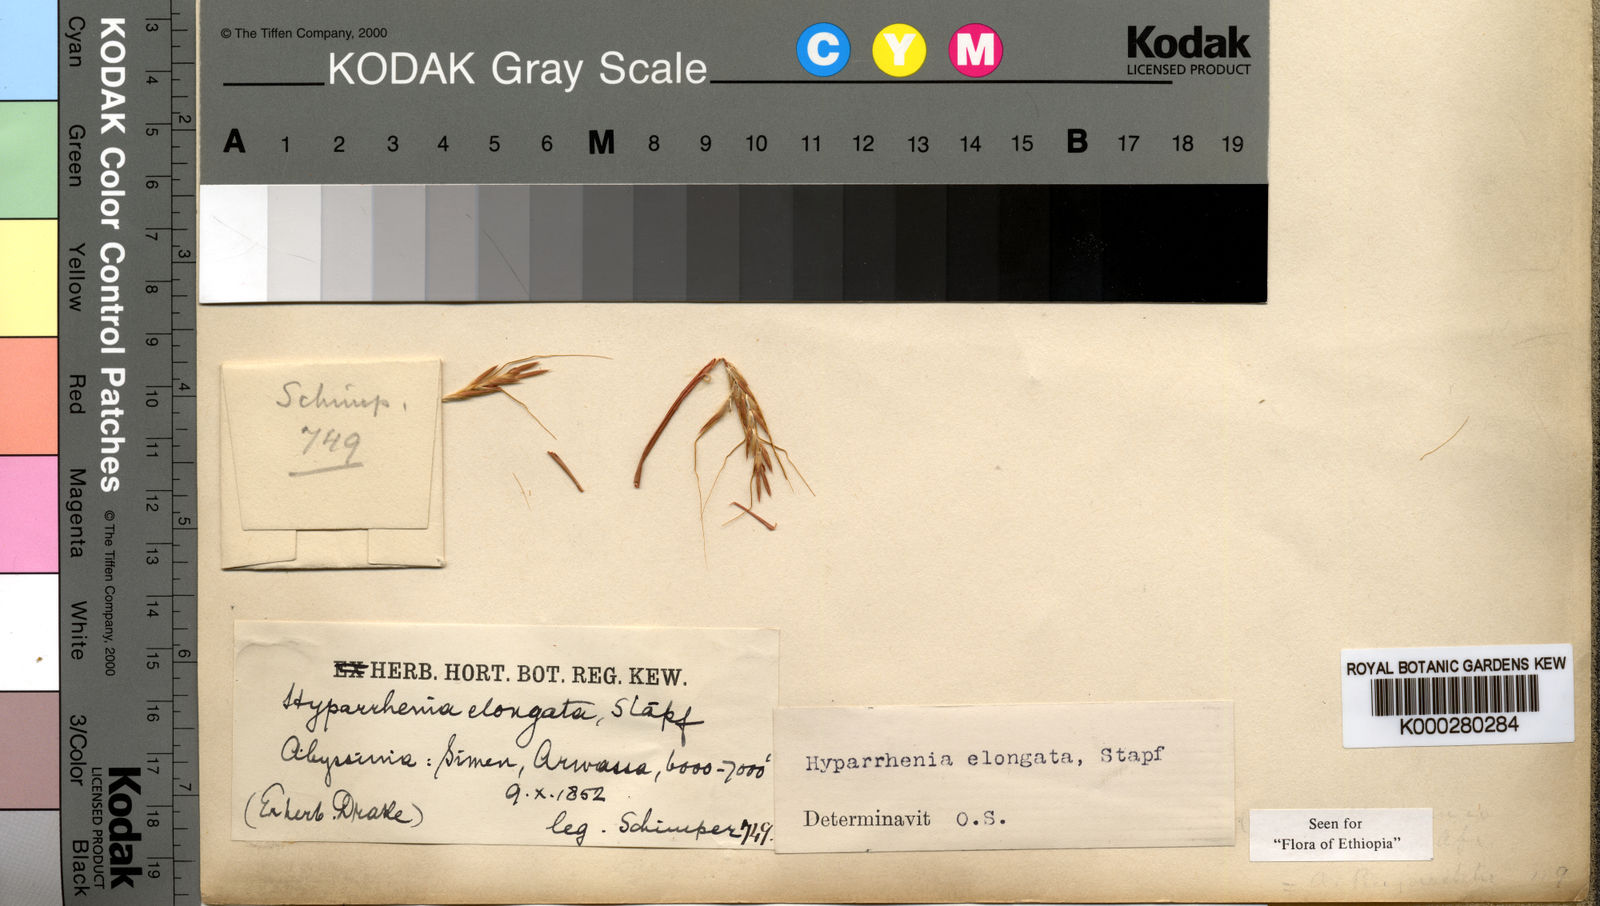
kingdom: Plantae
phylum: Tracheophyta
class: Liliopsida
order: Poales
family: Poaceae
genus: Hyparrhenia
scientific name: Hyparrhenia dregeana
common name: Silky thatching grass
